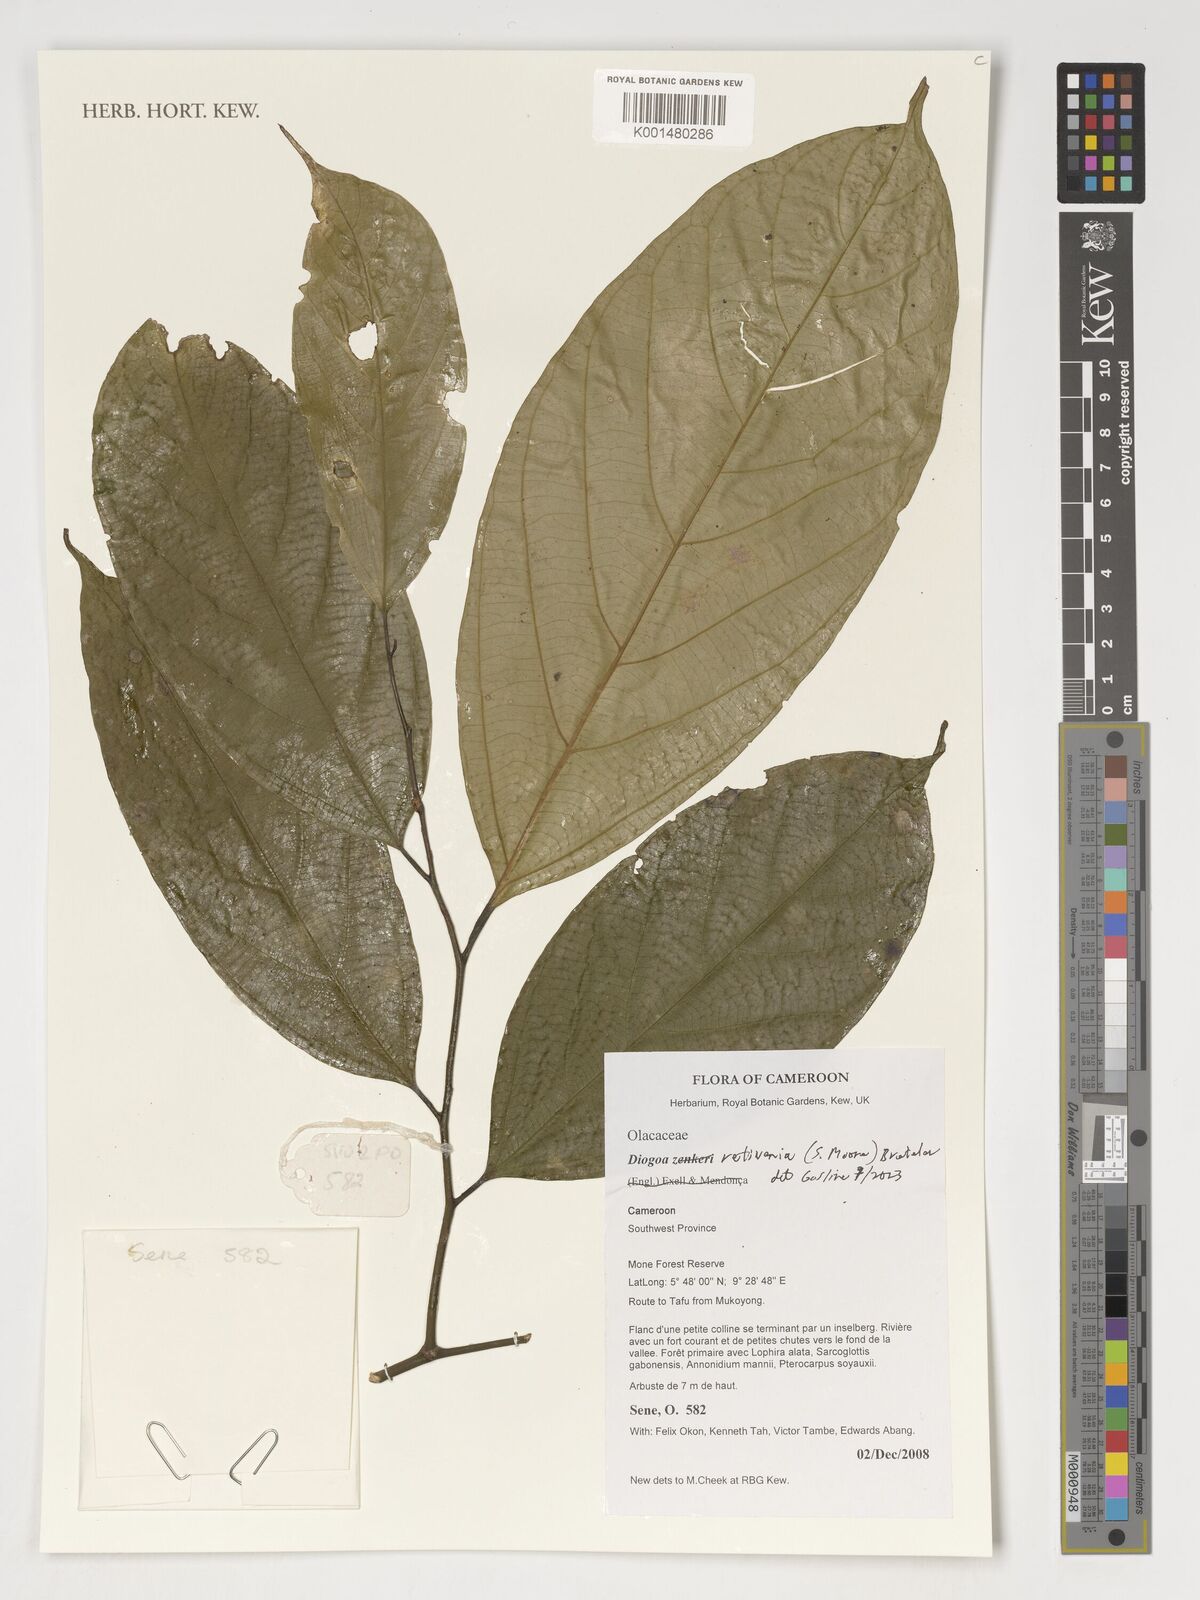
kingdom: Plantae
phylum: Tracheophyta
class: Magnoliopsida
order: Santalales
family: Strombosiaceae
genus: Diogoa
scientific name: Diogoa retivenia
